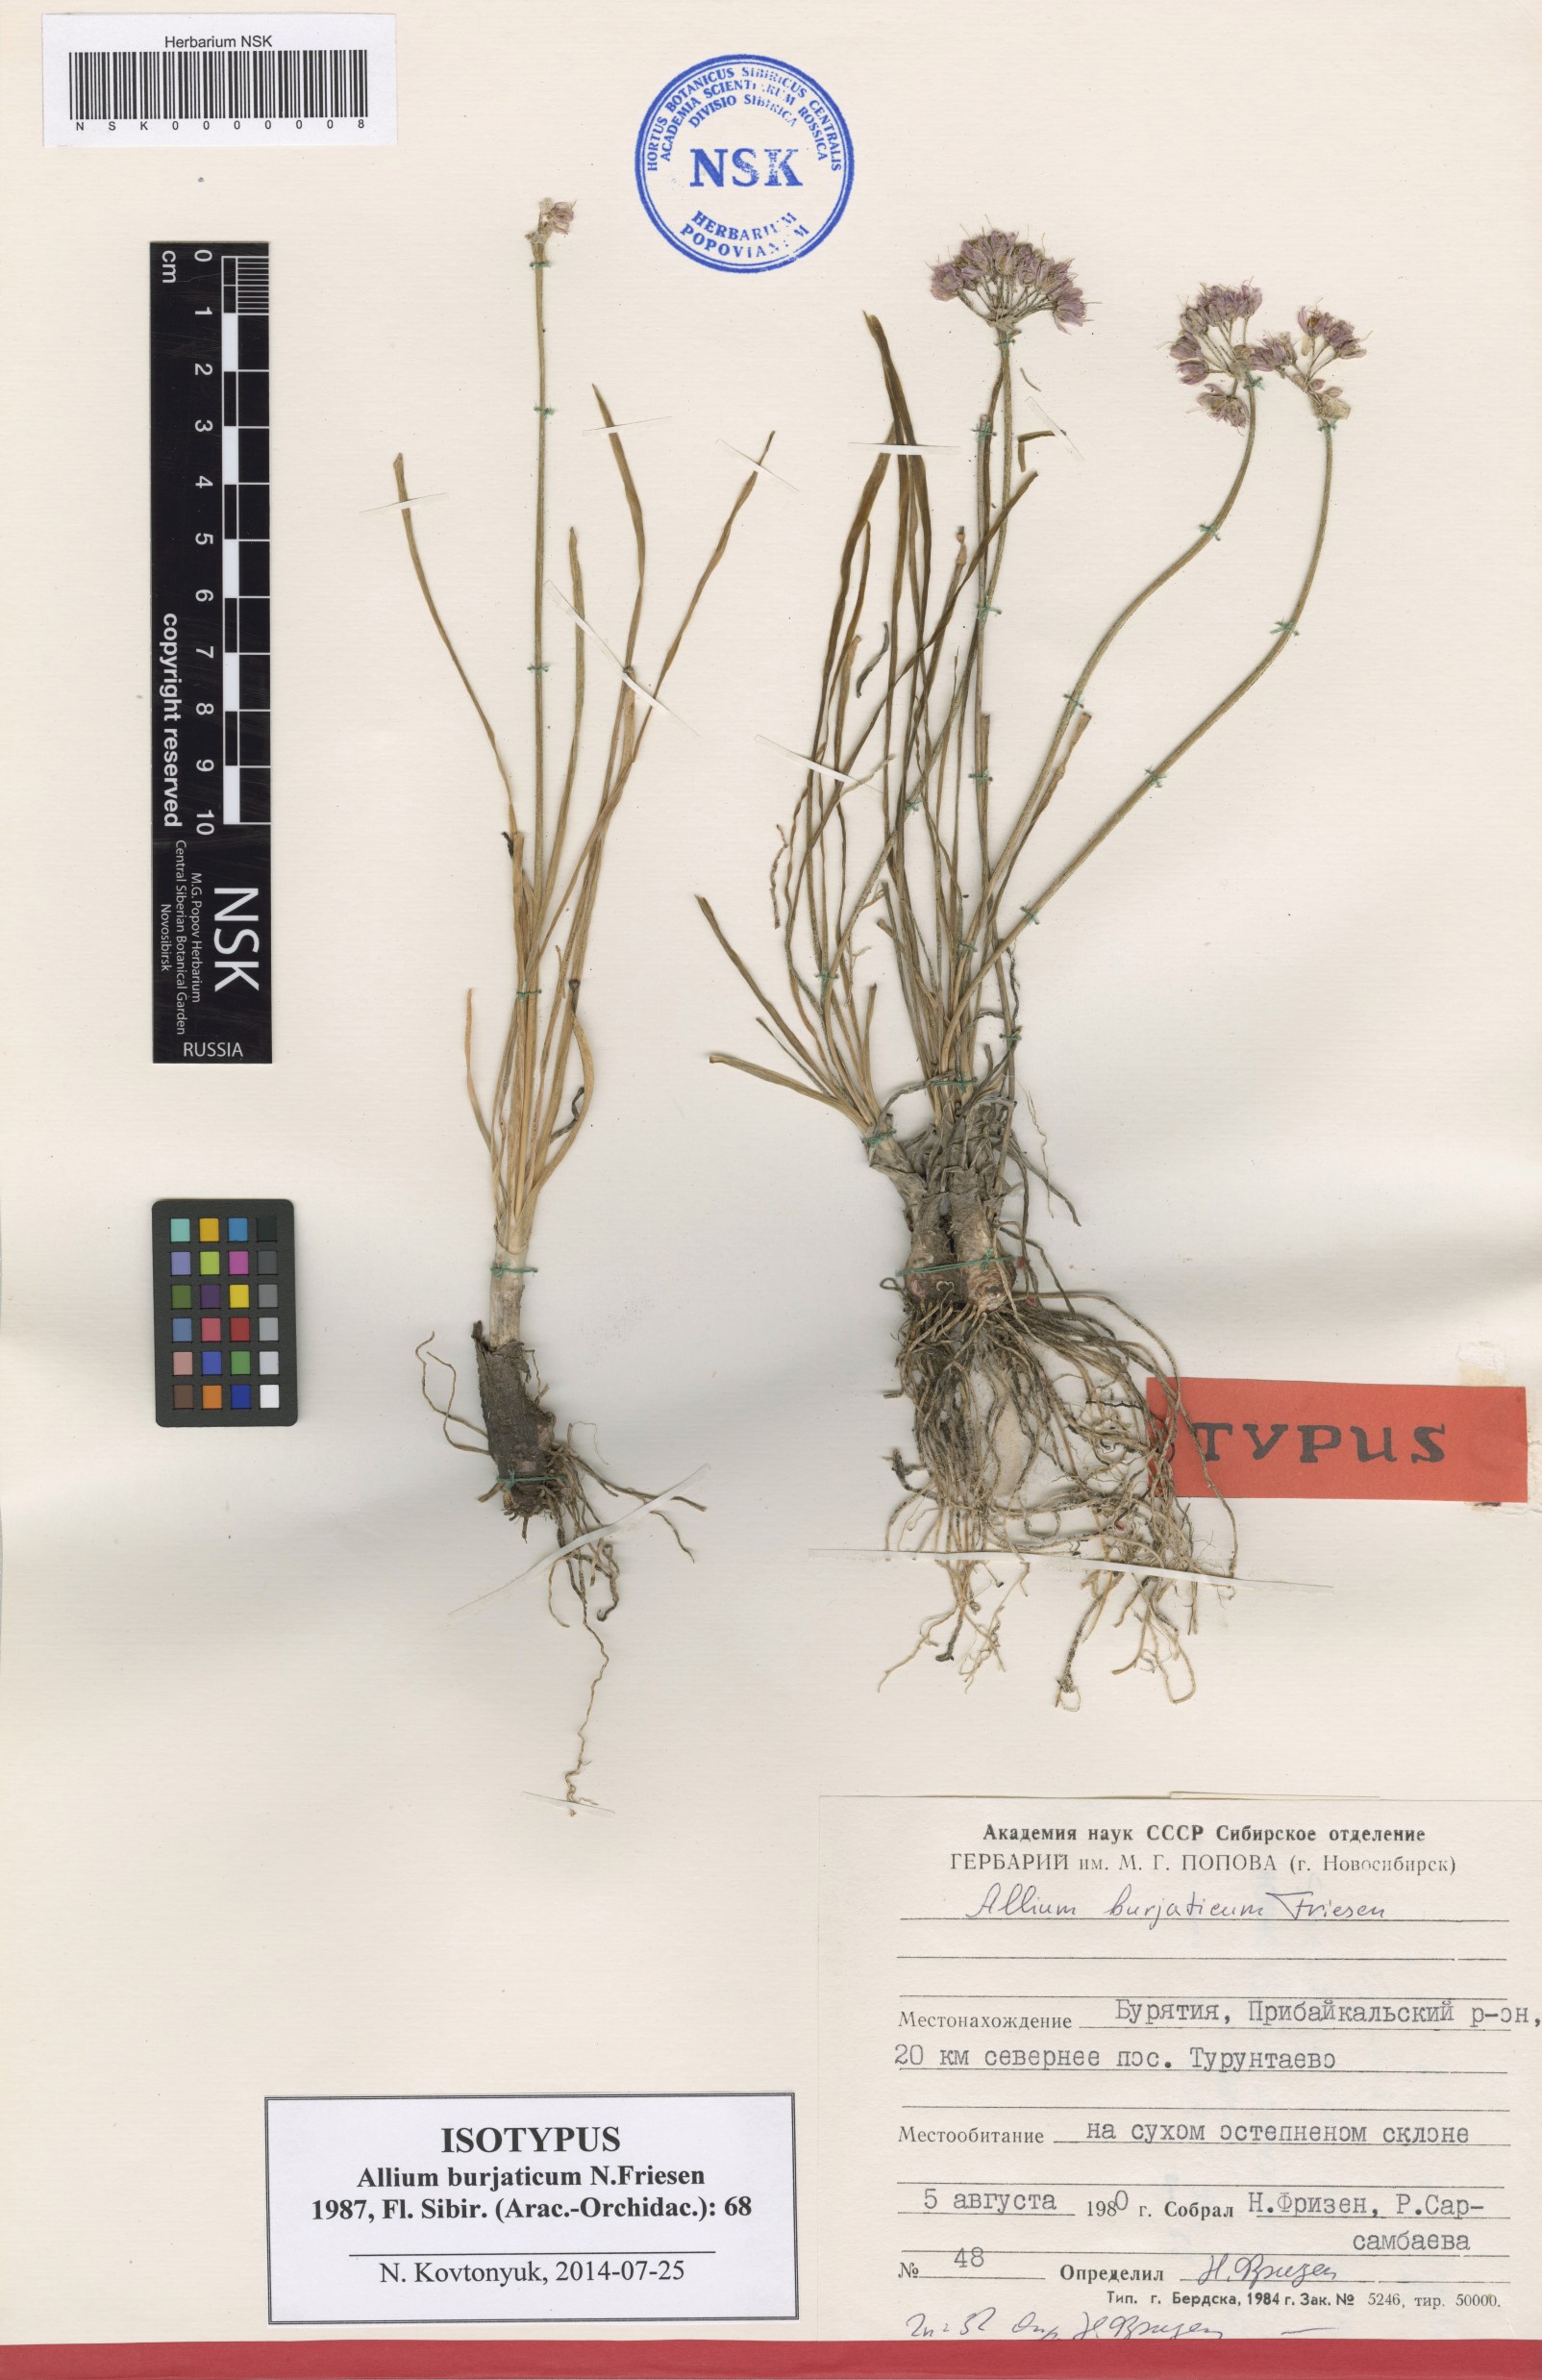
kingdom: Plantae
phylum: Tracheophyta
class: Liliopsida
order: Asparagales
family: Amaryllidaceae
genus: Allium
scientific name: Allium burjaticum
